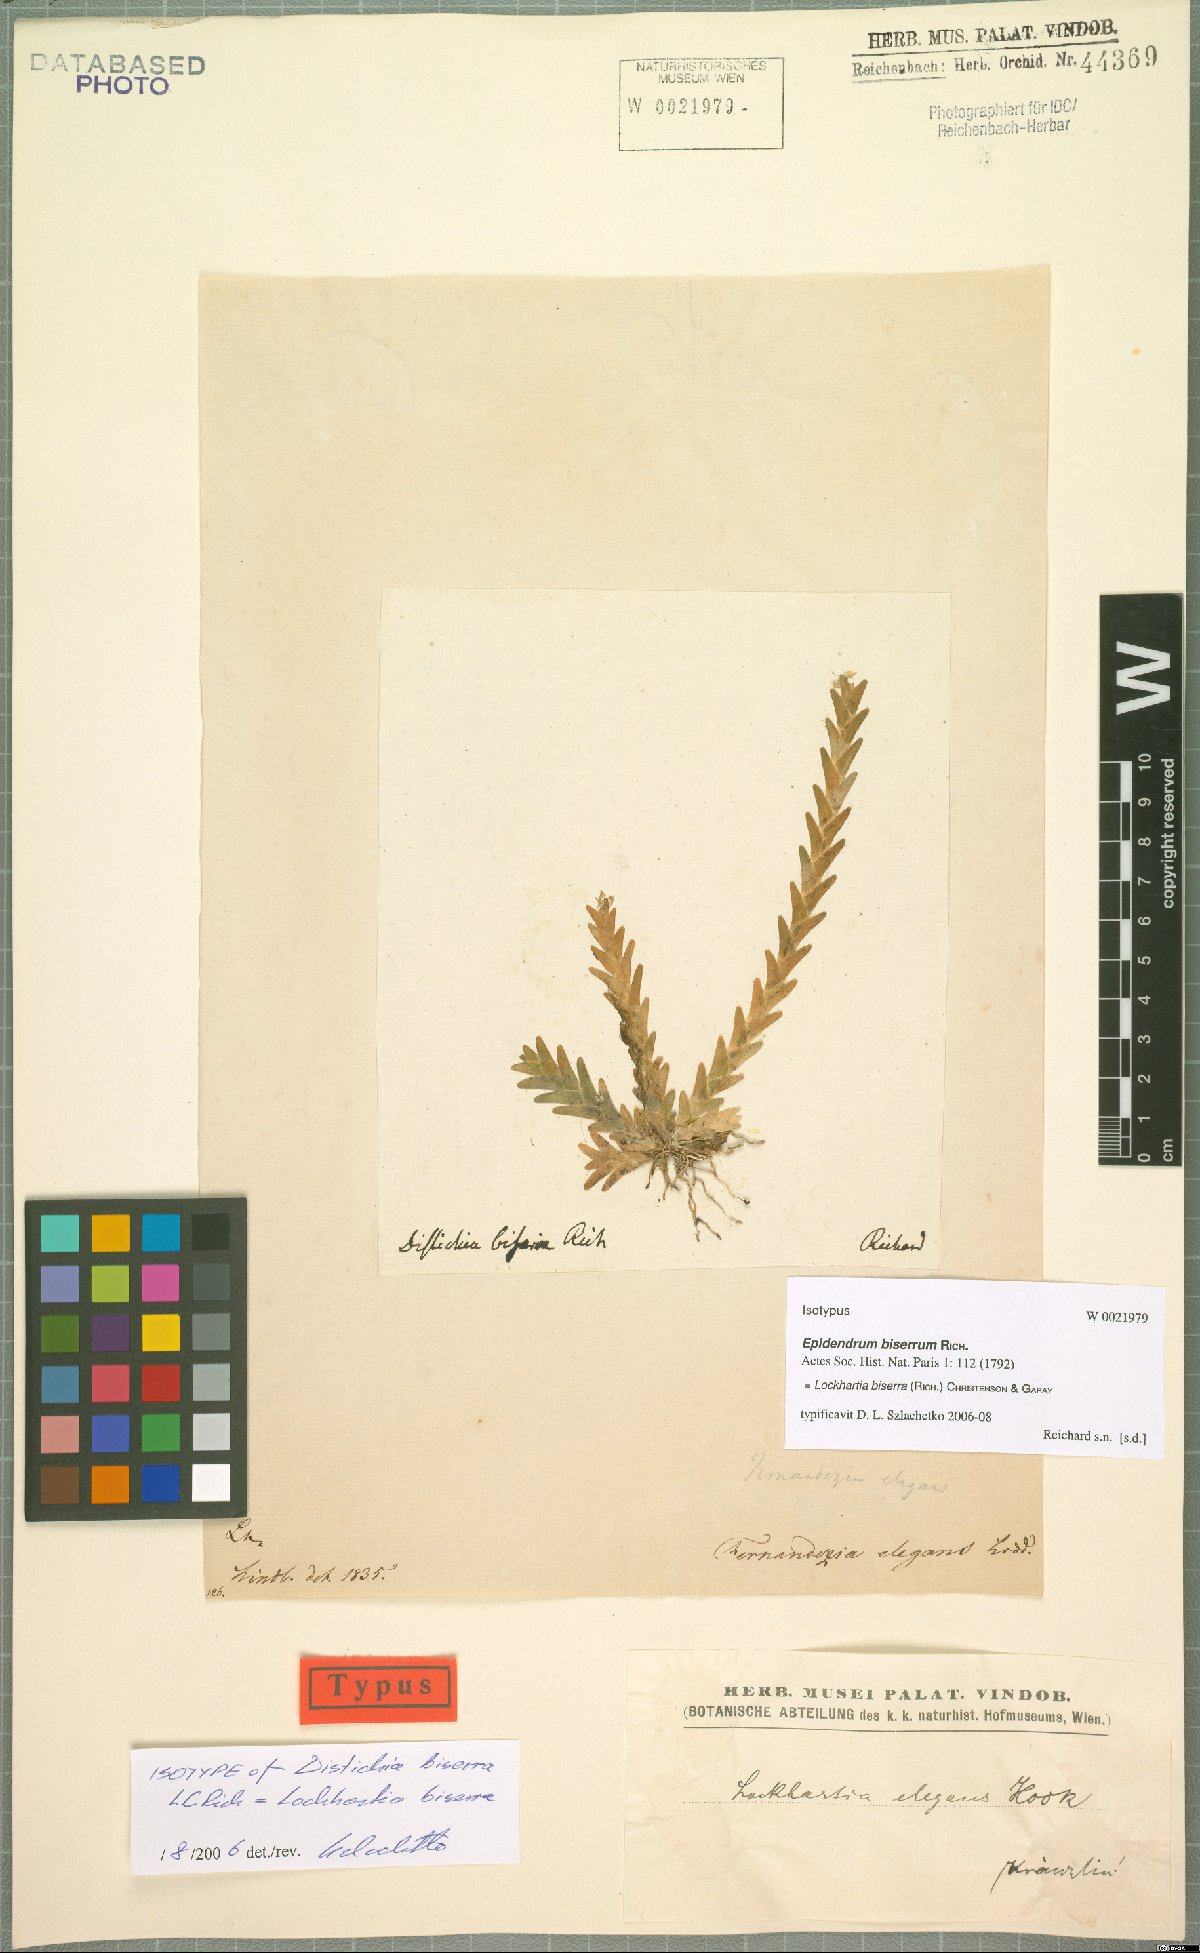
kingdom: Plantae
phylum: Tracheophyta
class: Liliopsida
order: Asparagales
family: Orchidaceae
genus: Lockhartia
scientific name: Lockhartia imbricata
